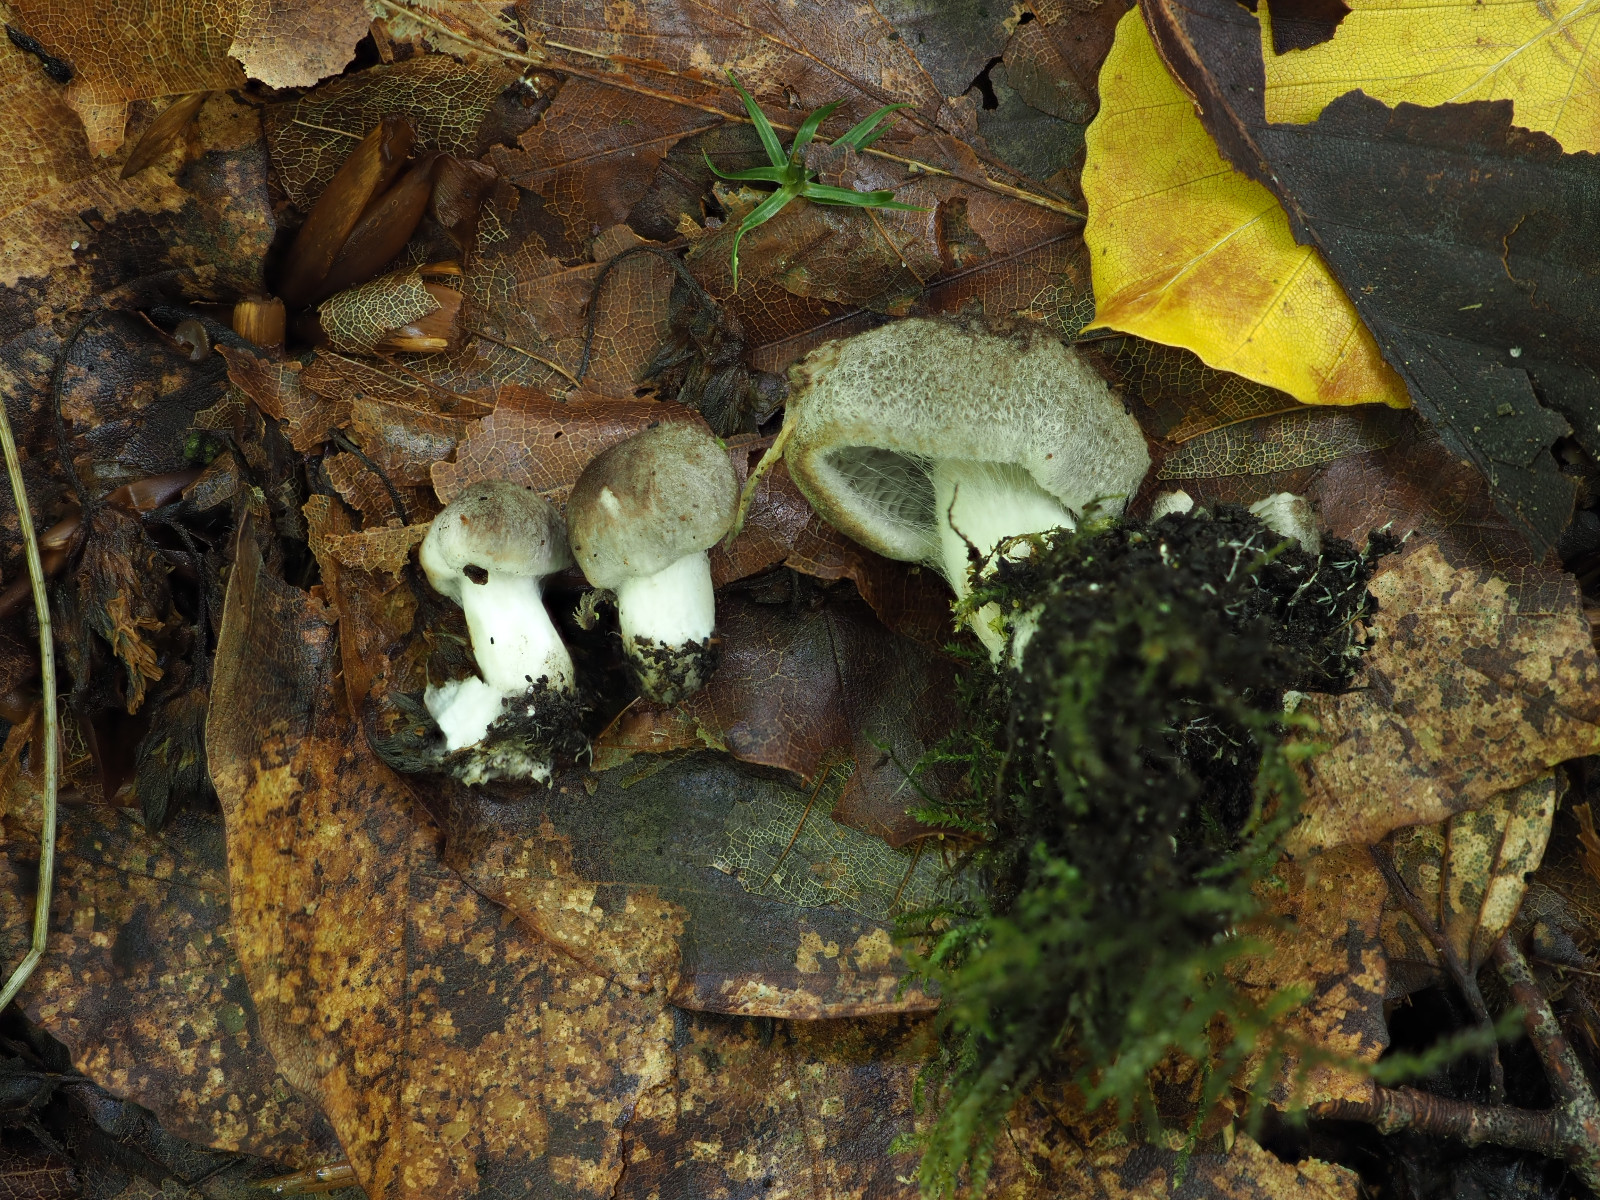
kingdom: Fungi
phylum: Basidiomycota
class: Agaricomycetes
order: Agaricales
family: Tricholomataceae
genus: Tricholoma
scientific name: Tricholoma scalpturatum
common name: gulplettet ridderhat
